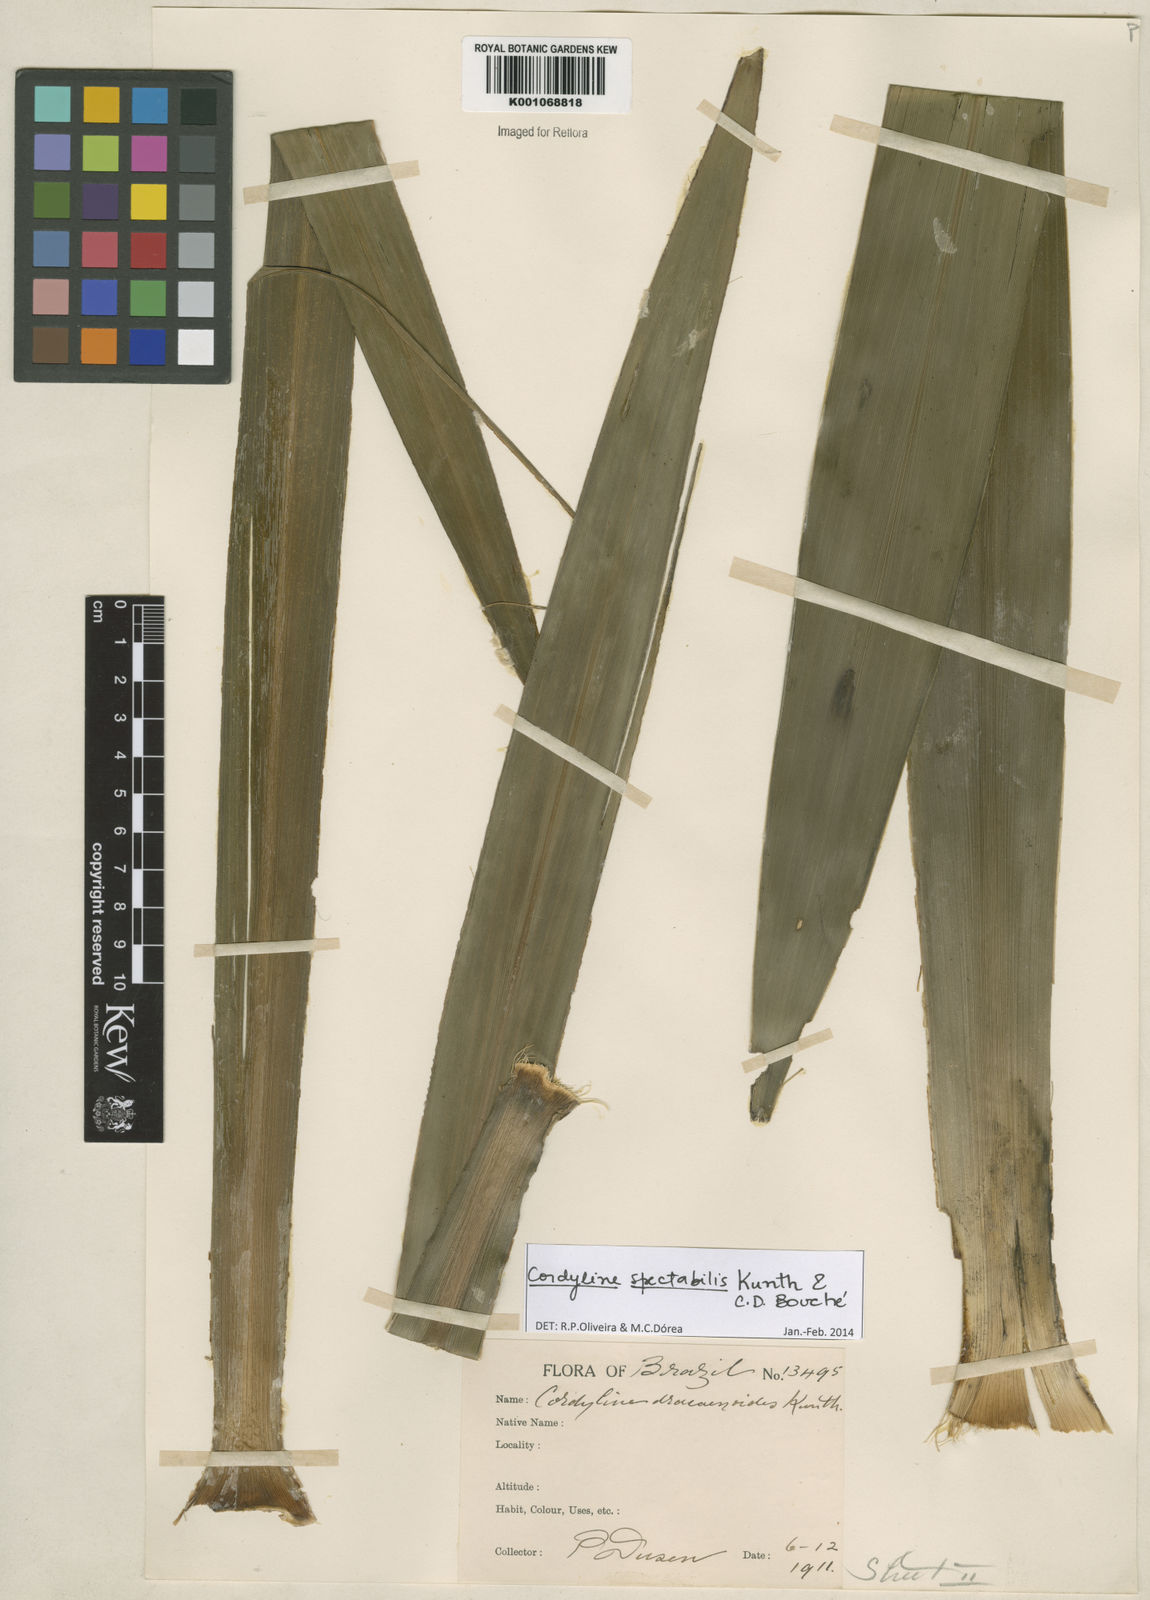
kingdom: Plantae
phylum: Tracheophyta
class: Liliopsida
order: Asparagales
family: Asparagaceae
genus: Cordyline
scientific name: Cordyline
